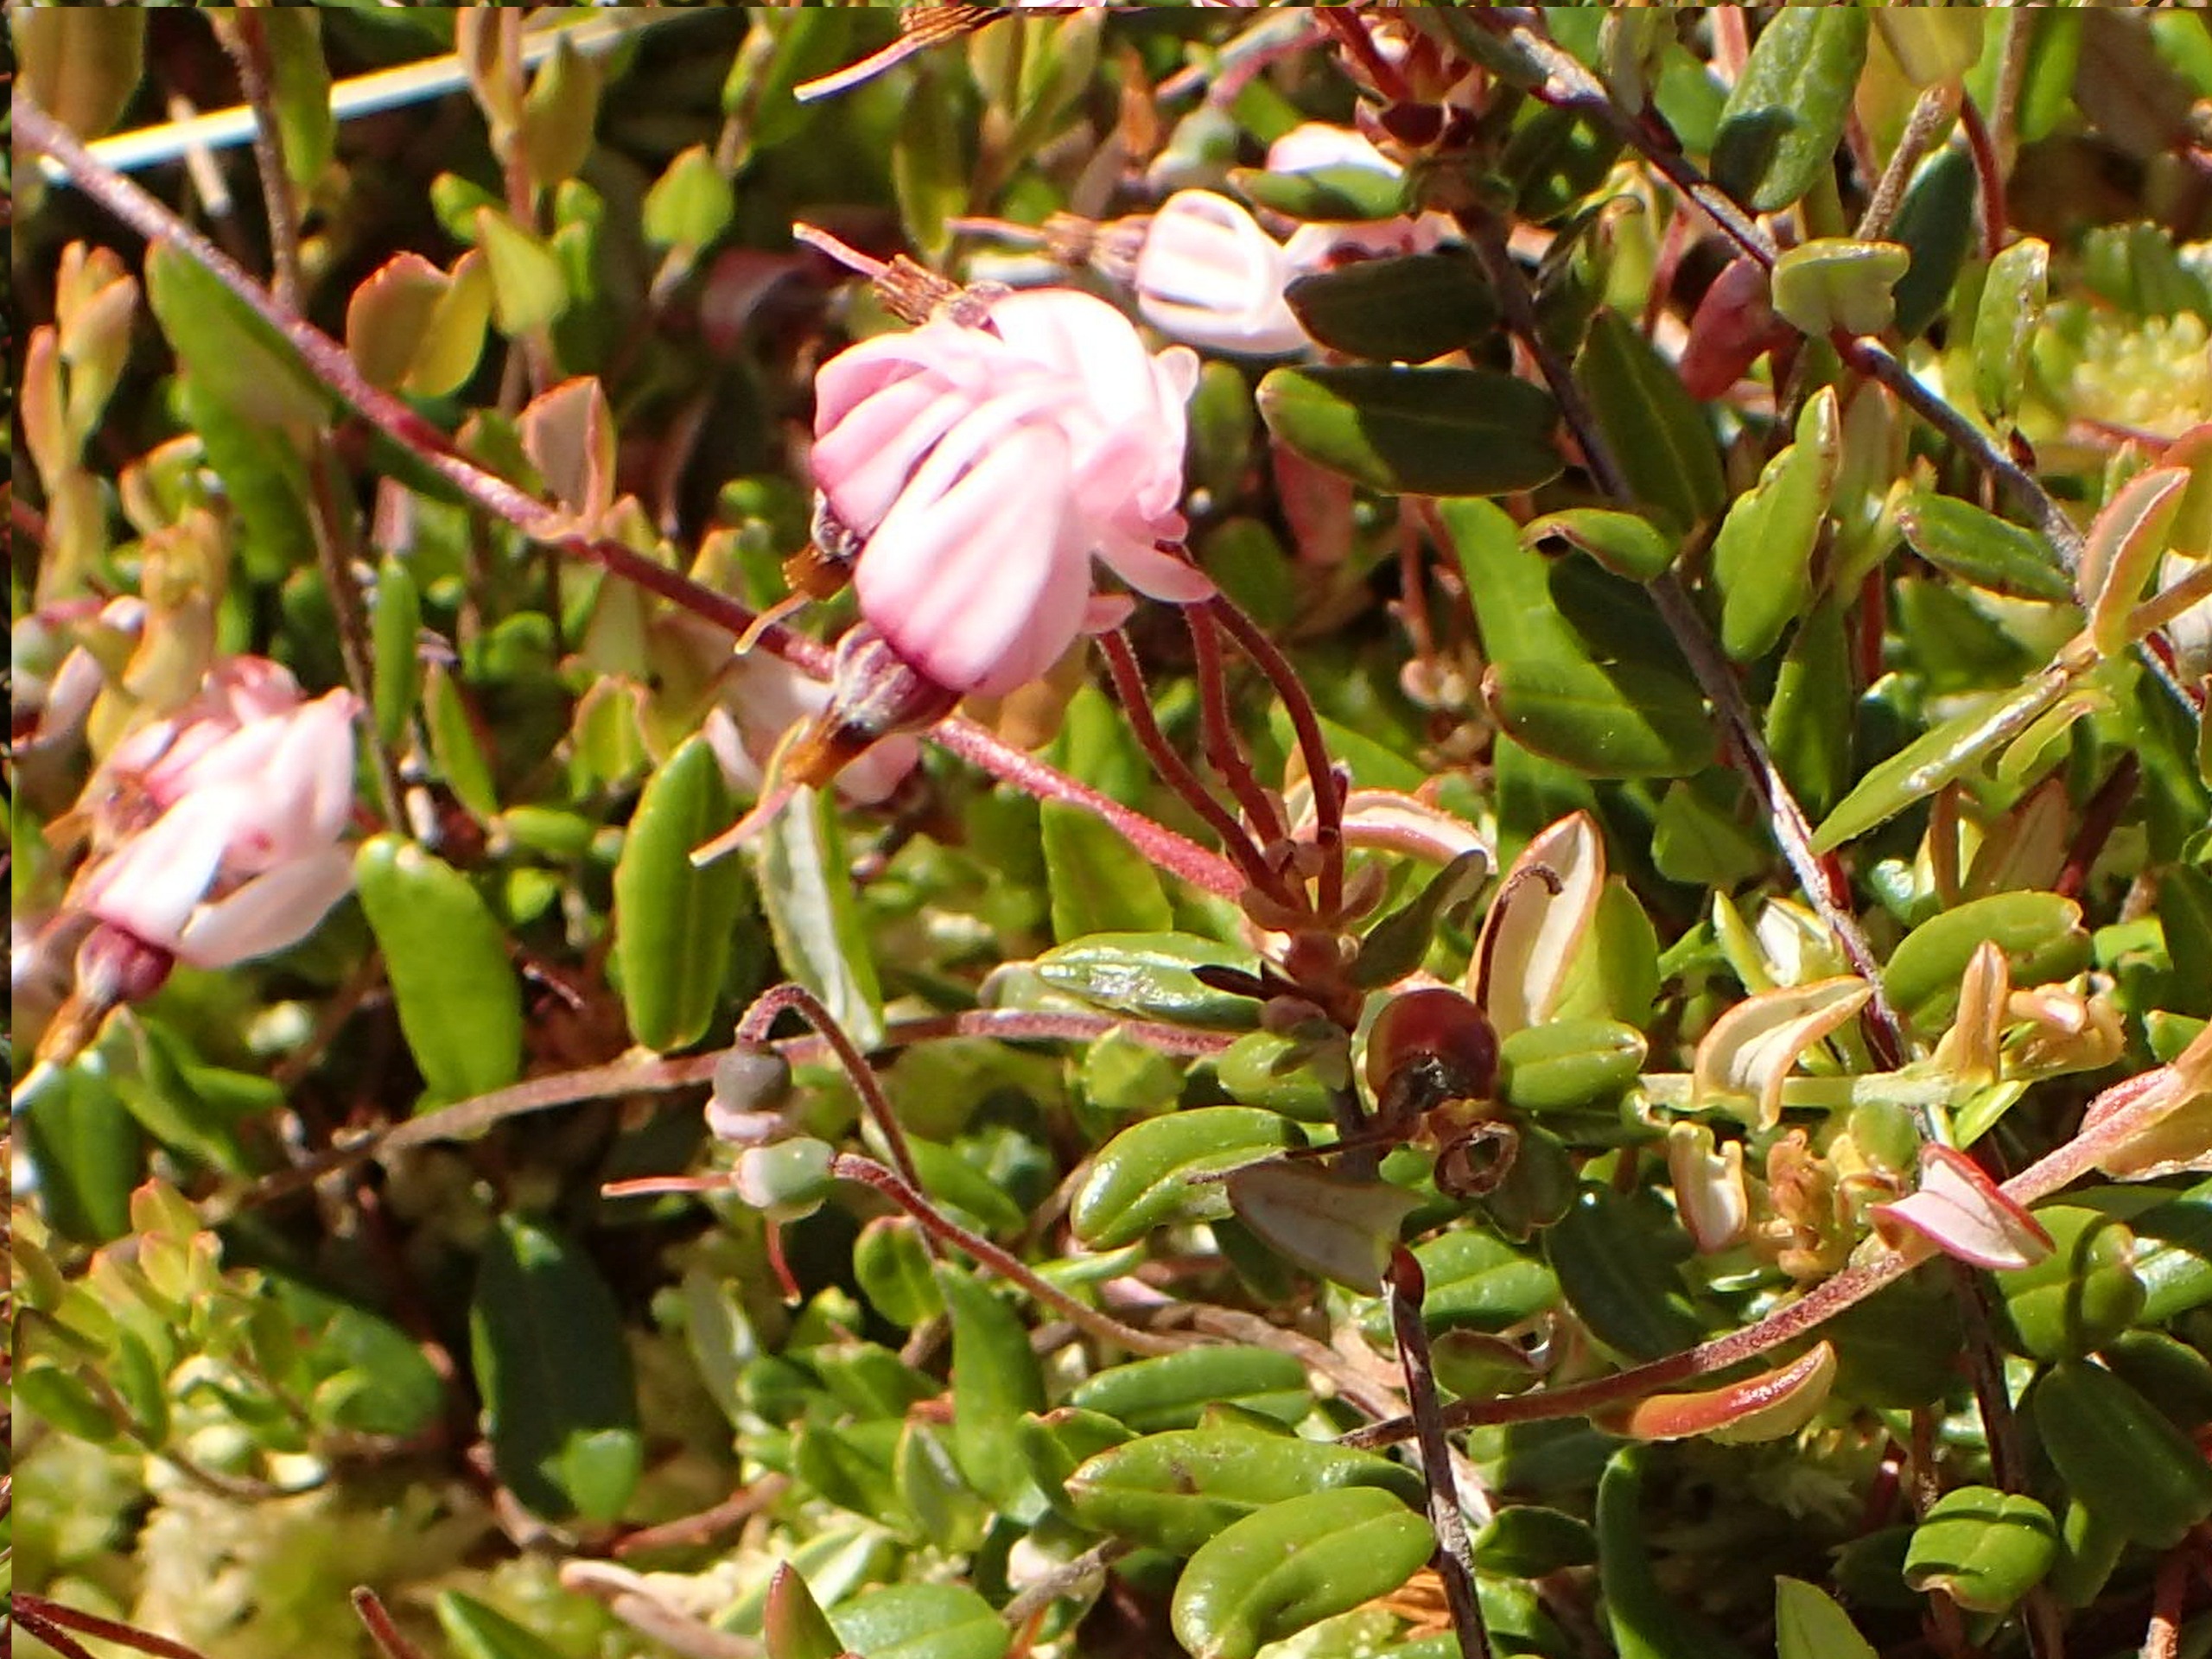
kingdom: Plantae
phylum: Tracheophyta
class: Magnoliopsida
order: Ericales
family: Ericaceae
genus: Vaccinium
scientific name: Vaccinium oxycoccos
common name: Tranebær
